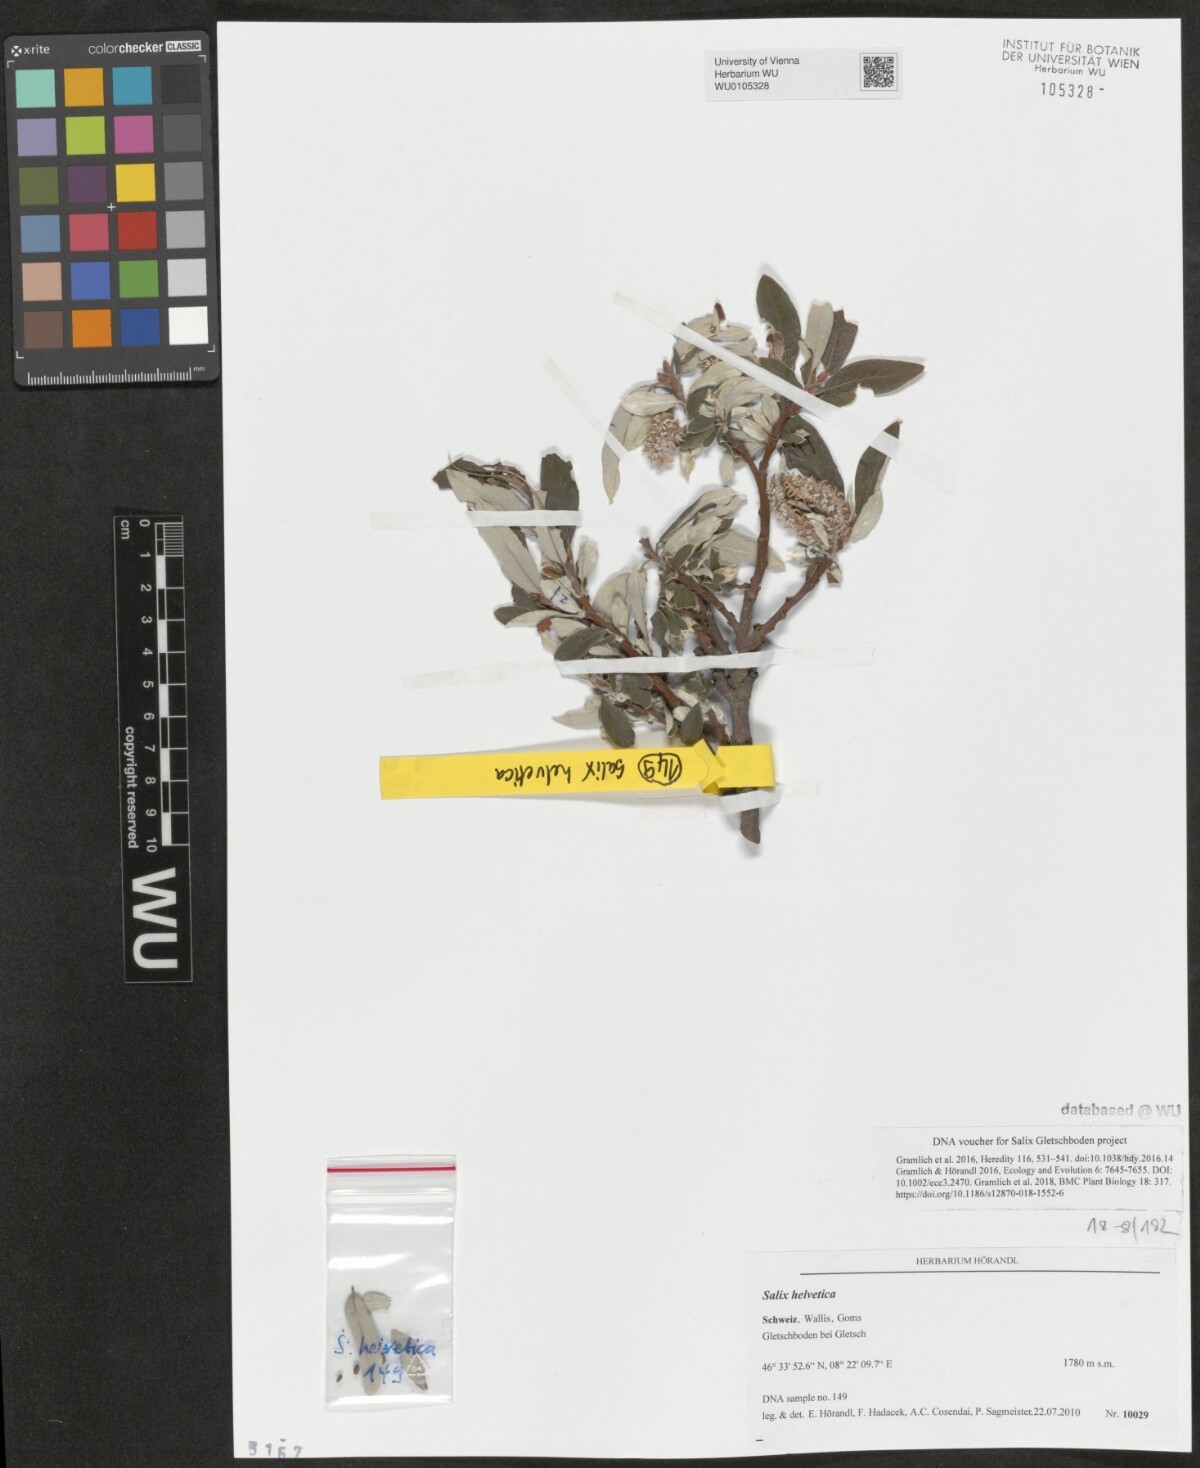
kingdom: Plantae
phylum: Tracheophyta
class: Magnoliopsida
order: Malpighiales
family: Salicaceae
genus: Salix
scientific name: Salix helvetica
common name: Swiss willow
